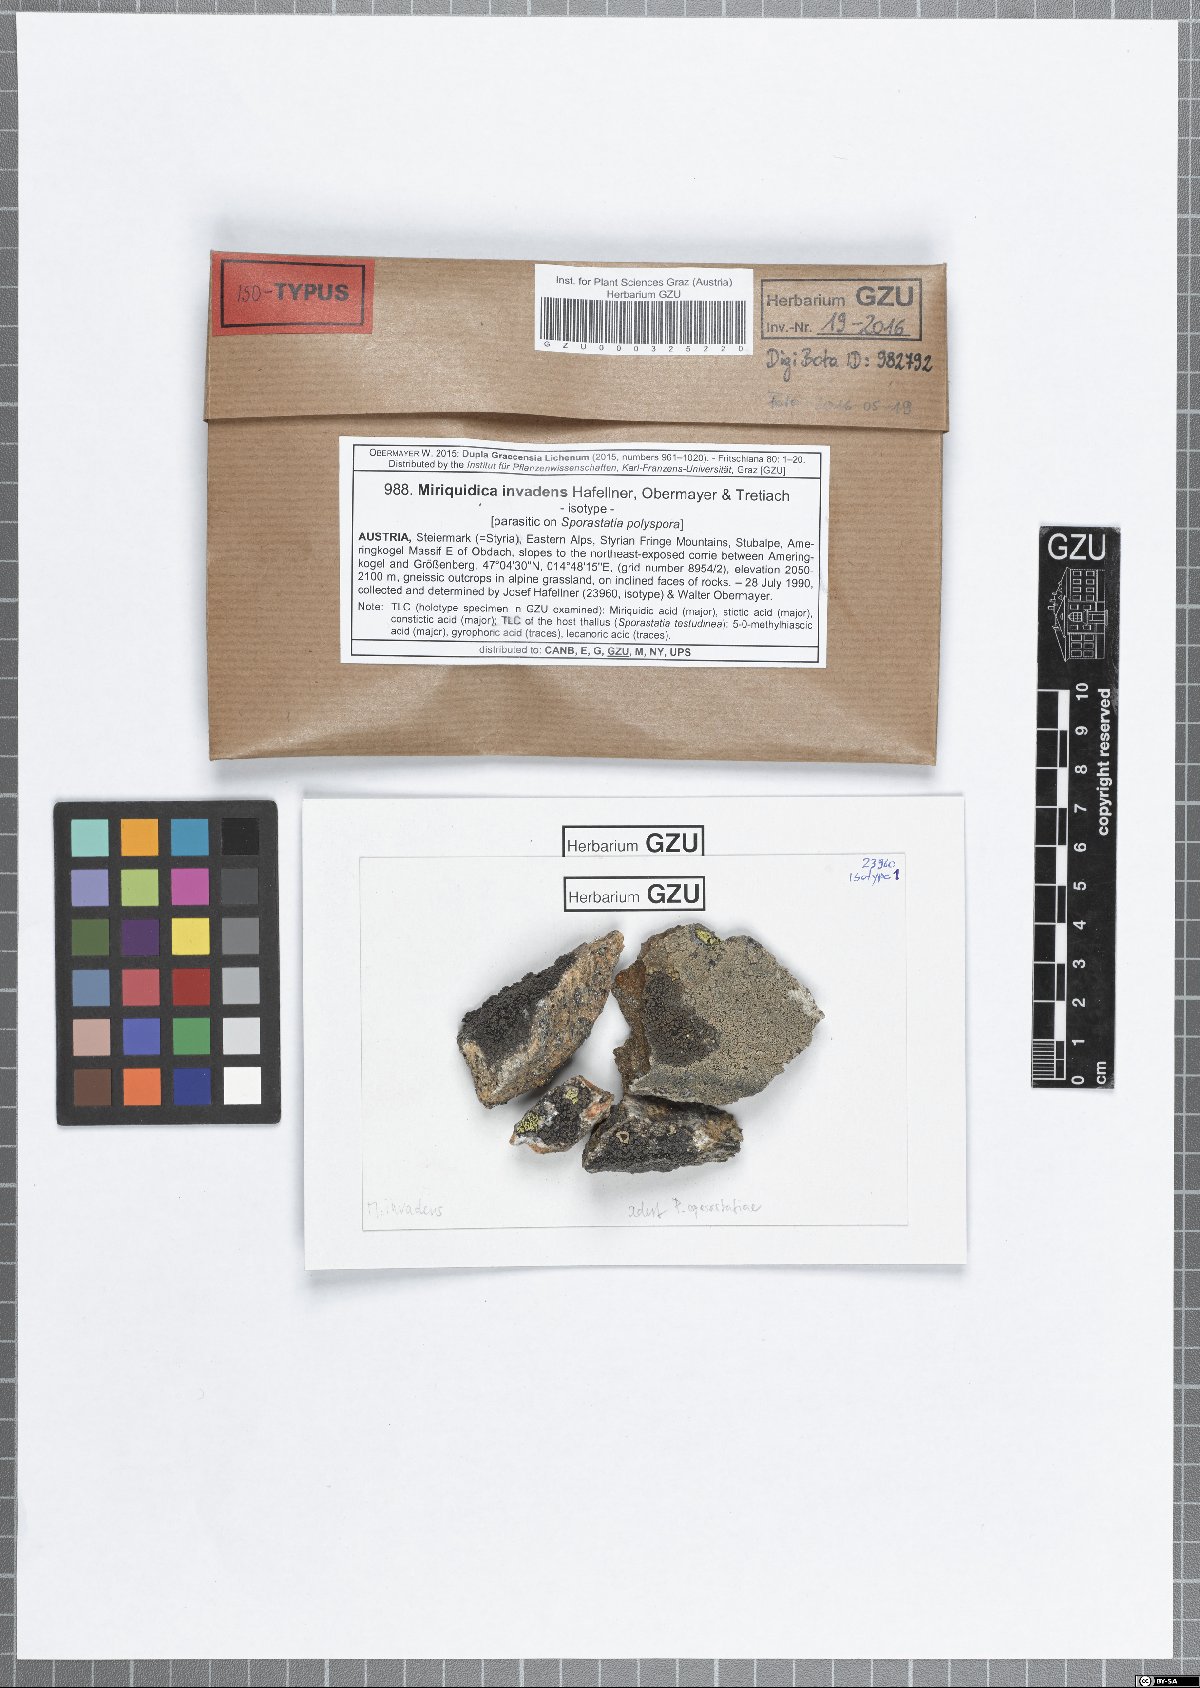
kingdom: Fungi
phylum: Ascomycota
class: Lecanoromycetes
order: Lecanorales
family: Lecanoraceae
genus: Miriquidica
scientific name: Miriquidica invadens
